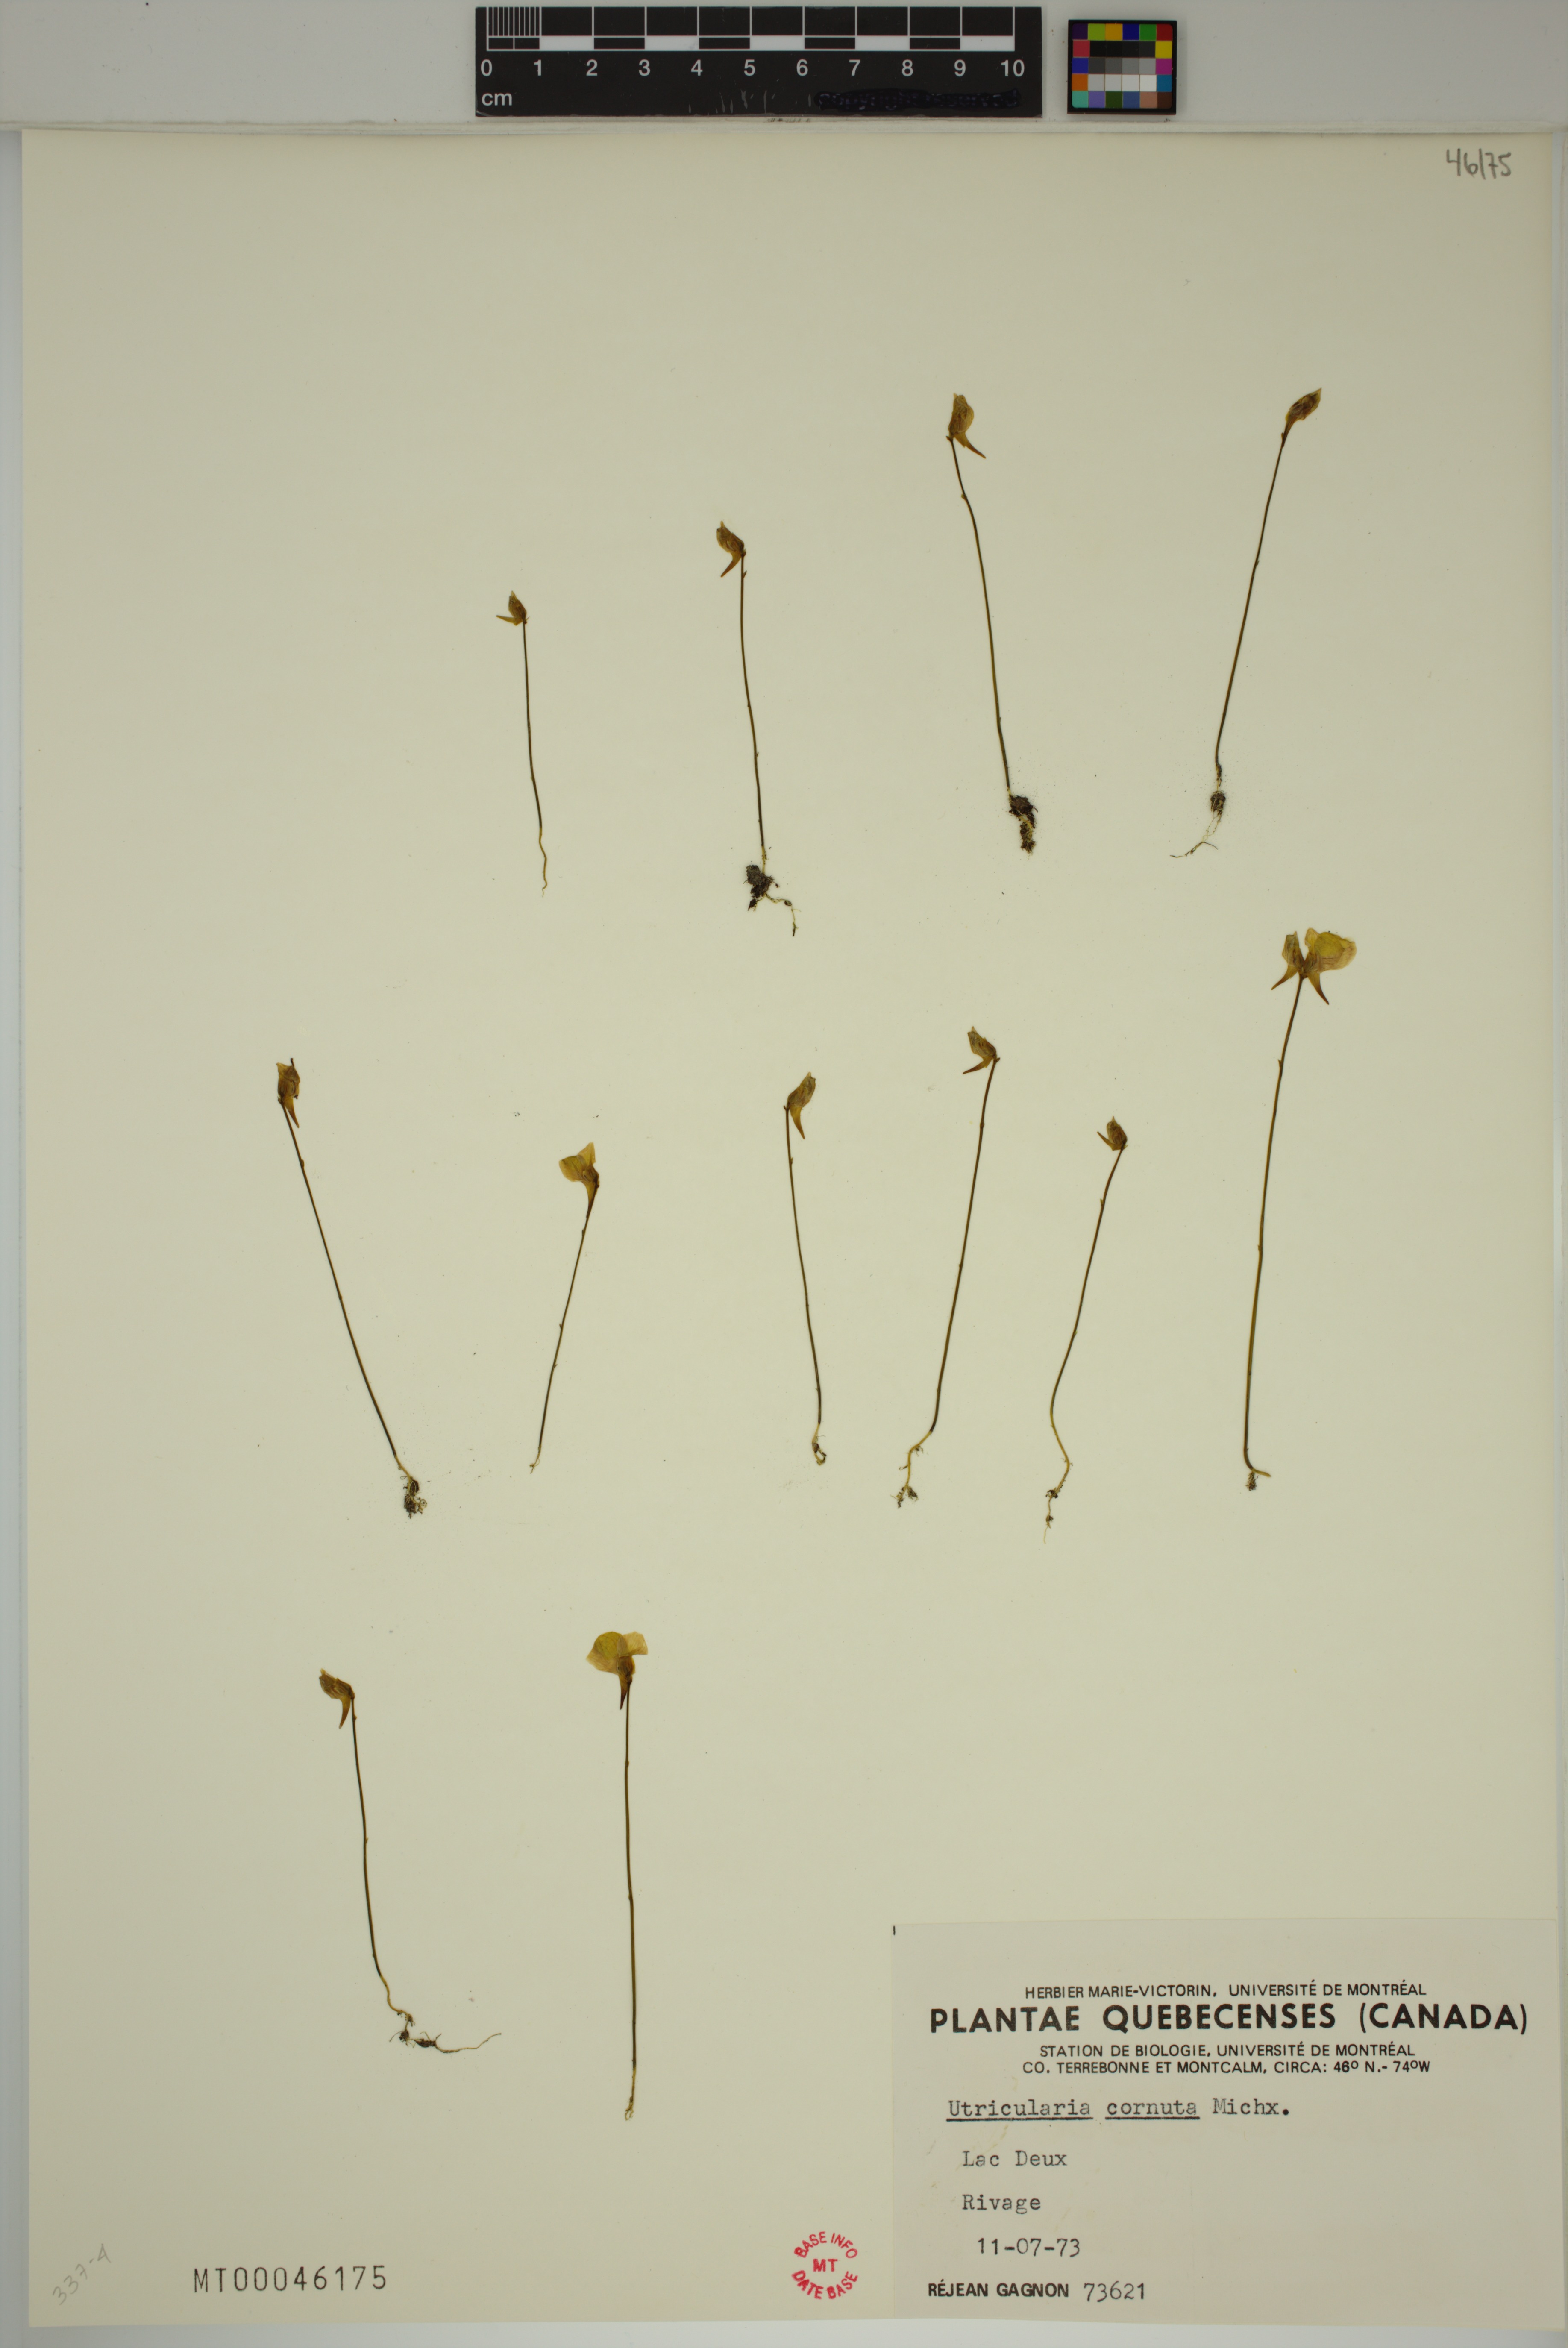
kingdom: Plantae
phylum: Tracheophyta
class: Magnoliopsida
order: Lamiales
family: Lentibulariaceae
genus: Utricularia
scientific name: Utricularia cornuta
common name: Horned bladderwort
